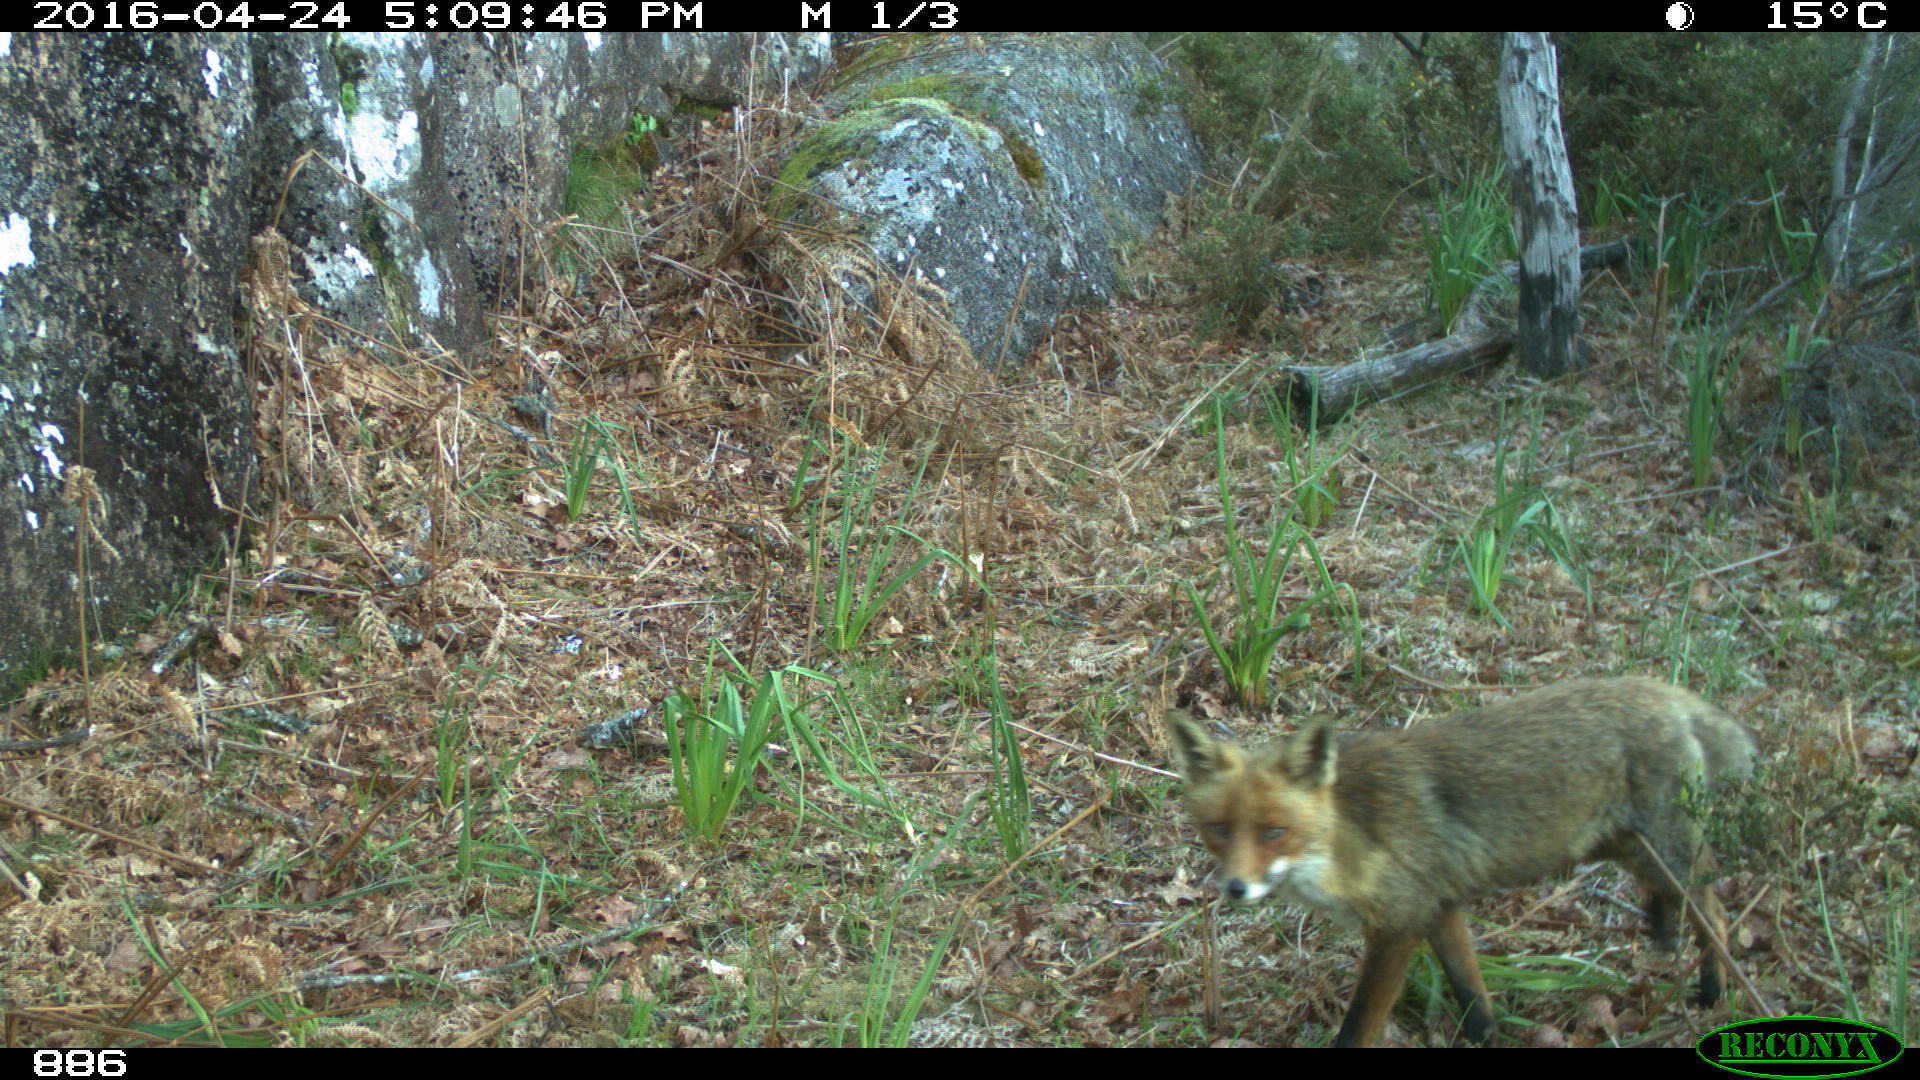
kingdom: Animalia
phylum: Chordata
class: Mammalia
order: Carnivora
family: Canidae
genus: Vulpes
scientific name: Vulpes vulpes
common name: Red fox
